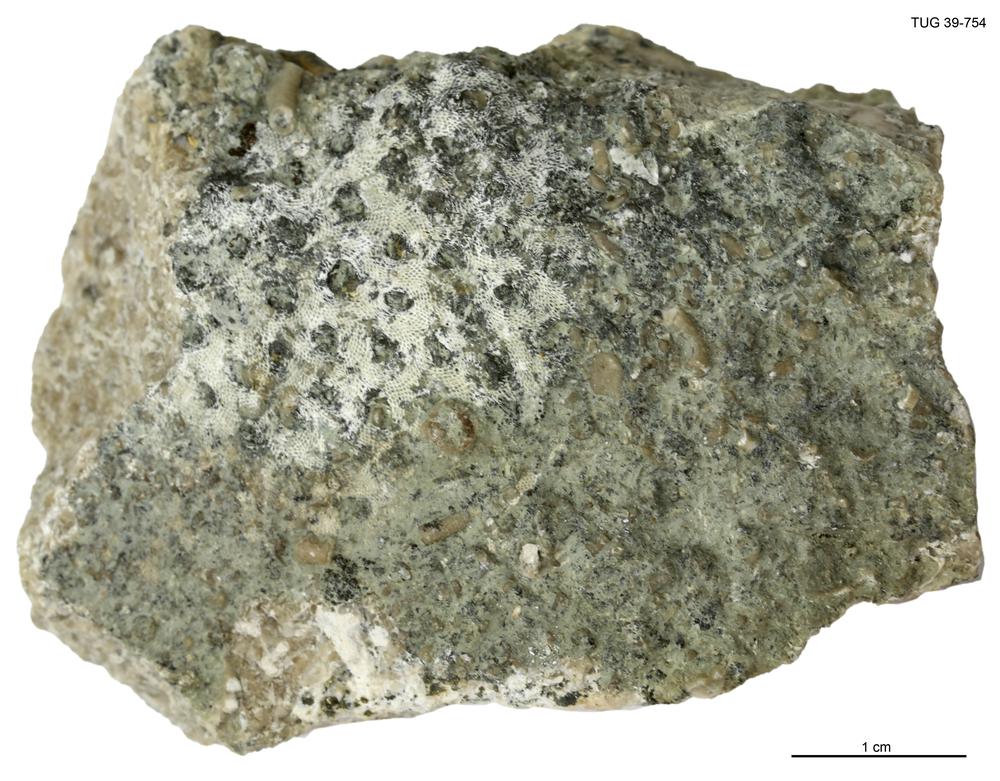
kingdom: Animalia
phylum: Bryozoa
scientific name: Bryozoa
